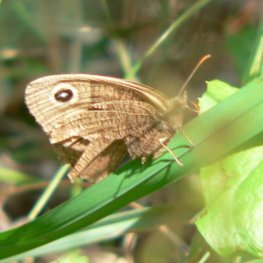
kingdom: Animalia
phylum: Arthropoda
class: Insecta
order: Lepidoptera
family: Nymphalidae
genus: Cercyonis
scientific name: Cercyonis pegala
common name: Common Wood-Nymph
